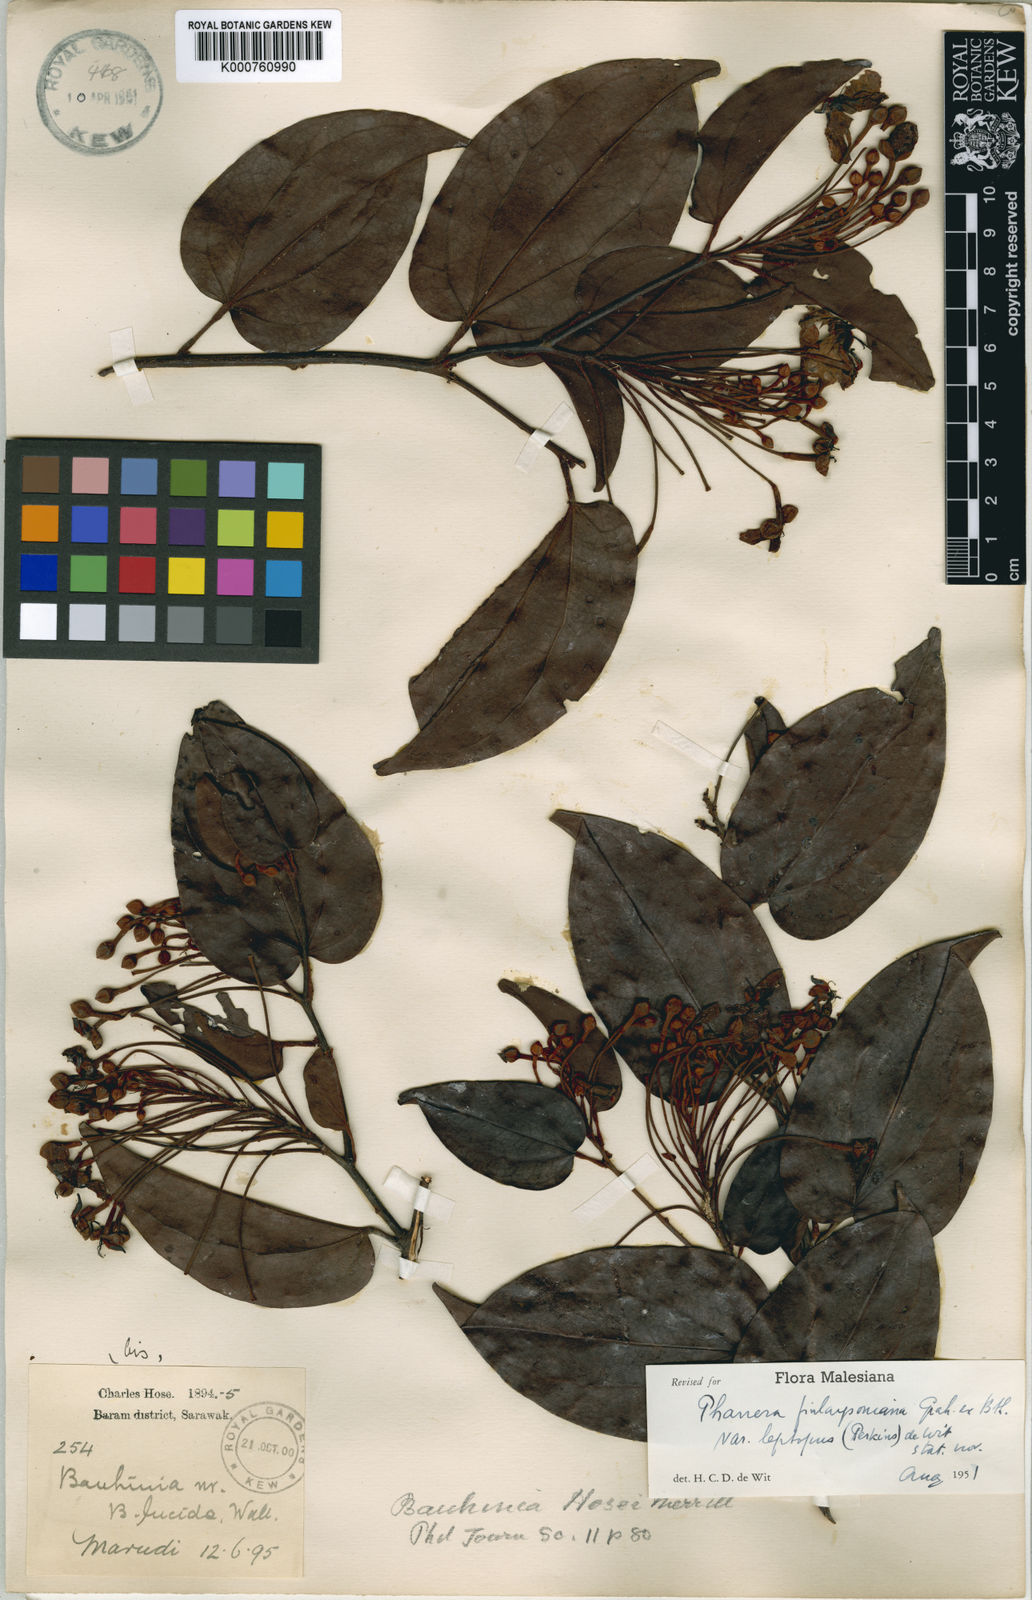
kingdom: Plantae
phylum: Tracheophyta
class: Magnoliopsida
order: Fabales
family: Fabaceae
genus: Phanera
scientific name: Phanera finlaysoniana
